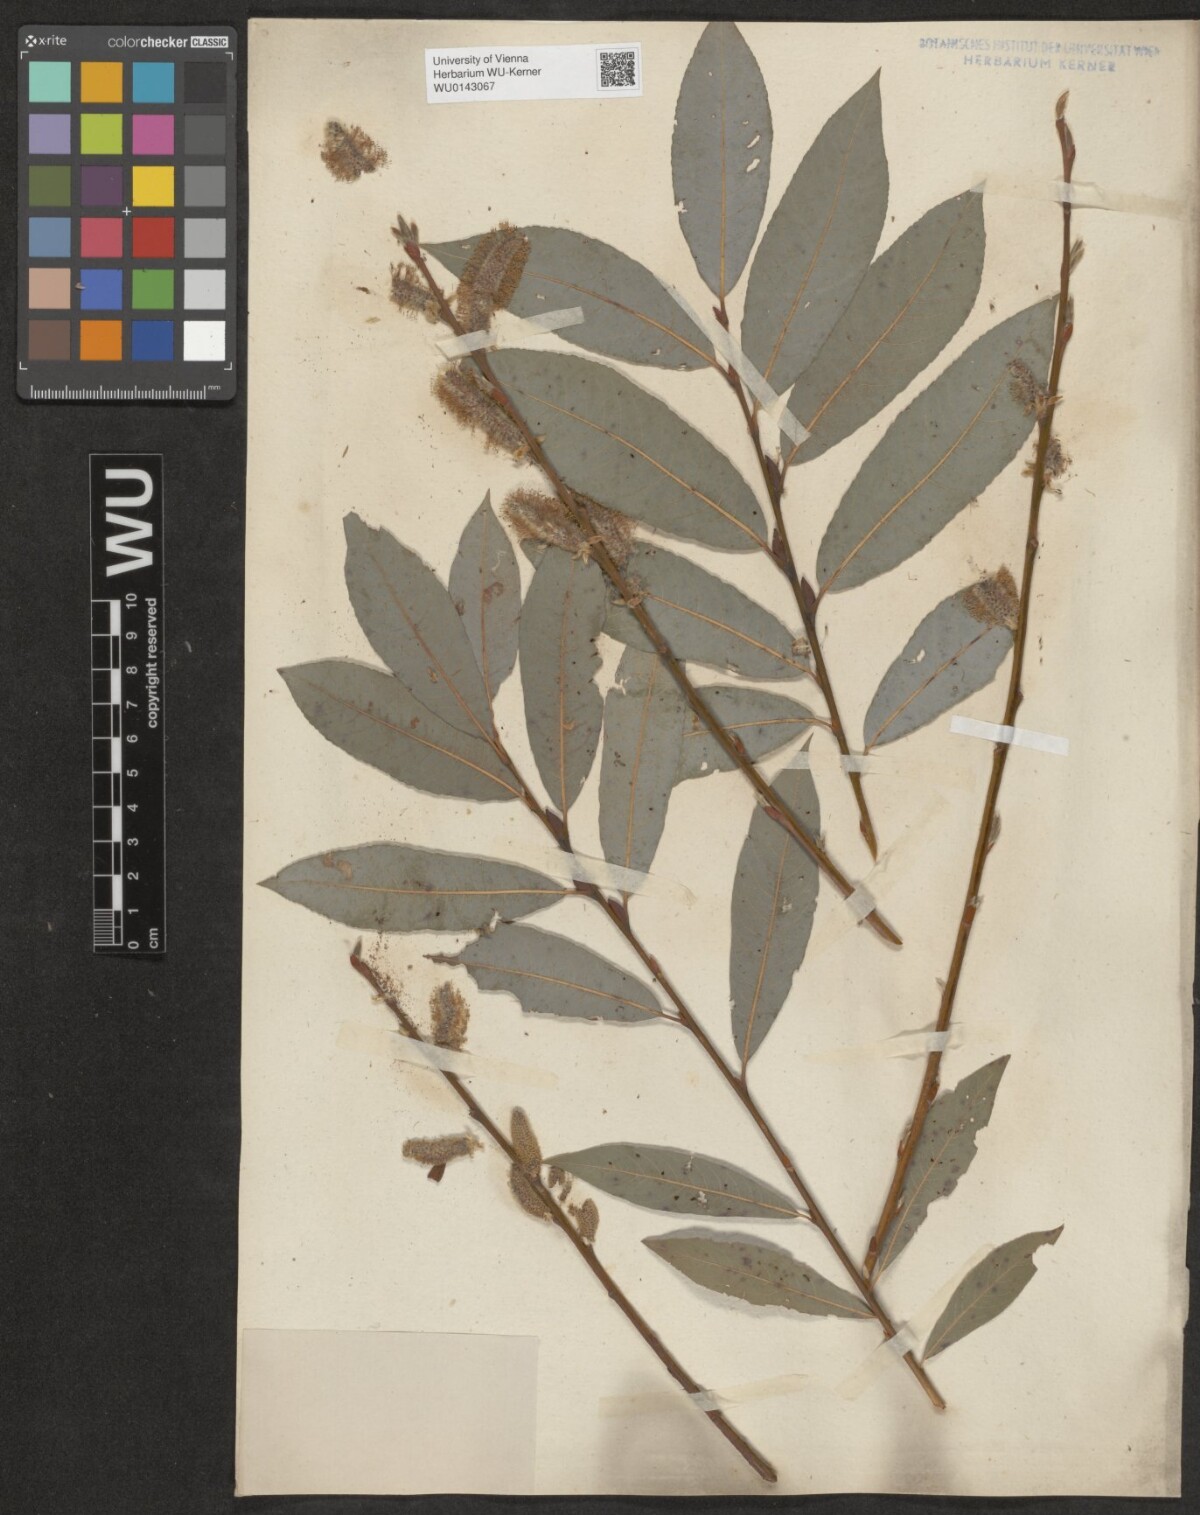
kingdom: Plantae
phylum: Tracheophyta
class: Magnoliopsida
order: Malpighiales
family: Salicaceae
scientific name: Salicaceae
